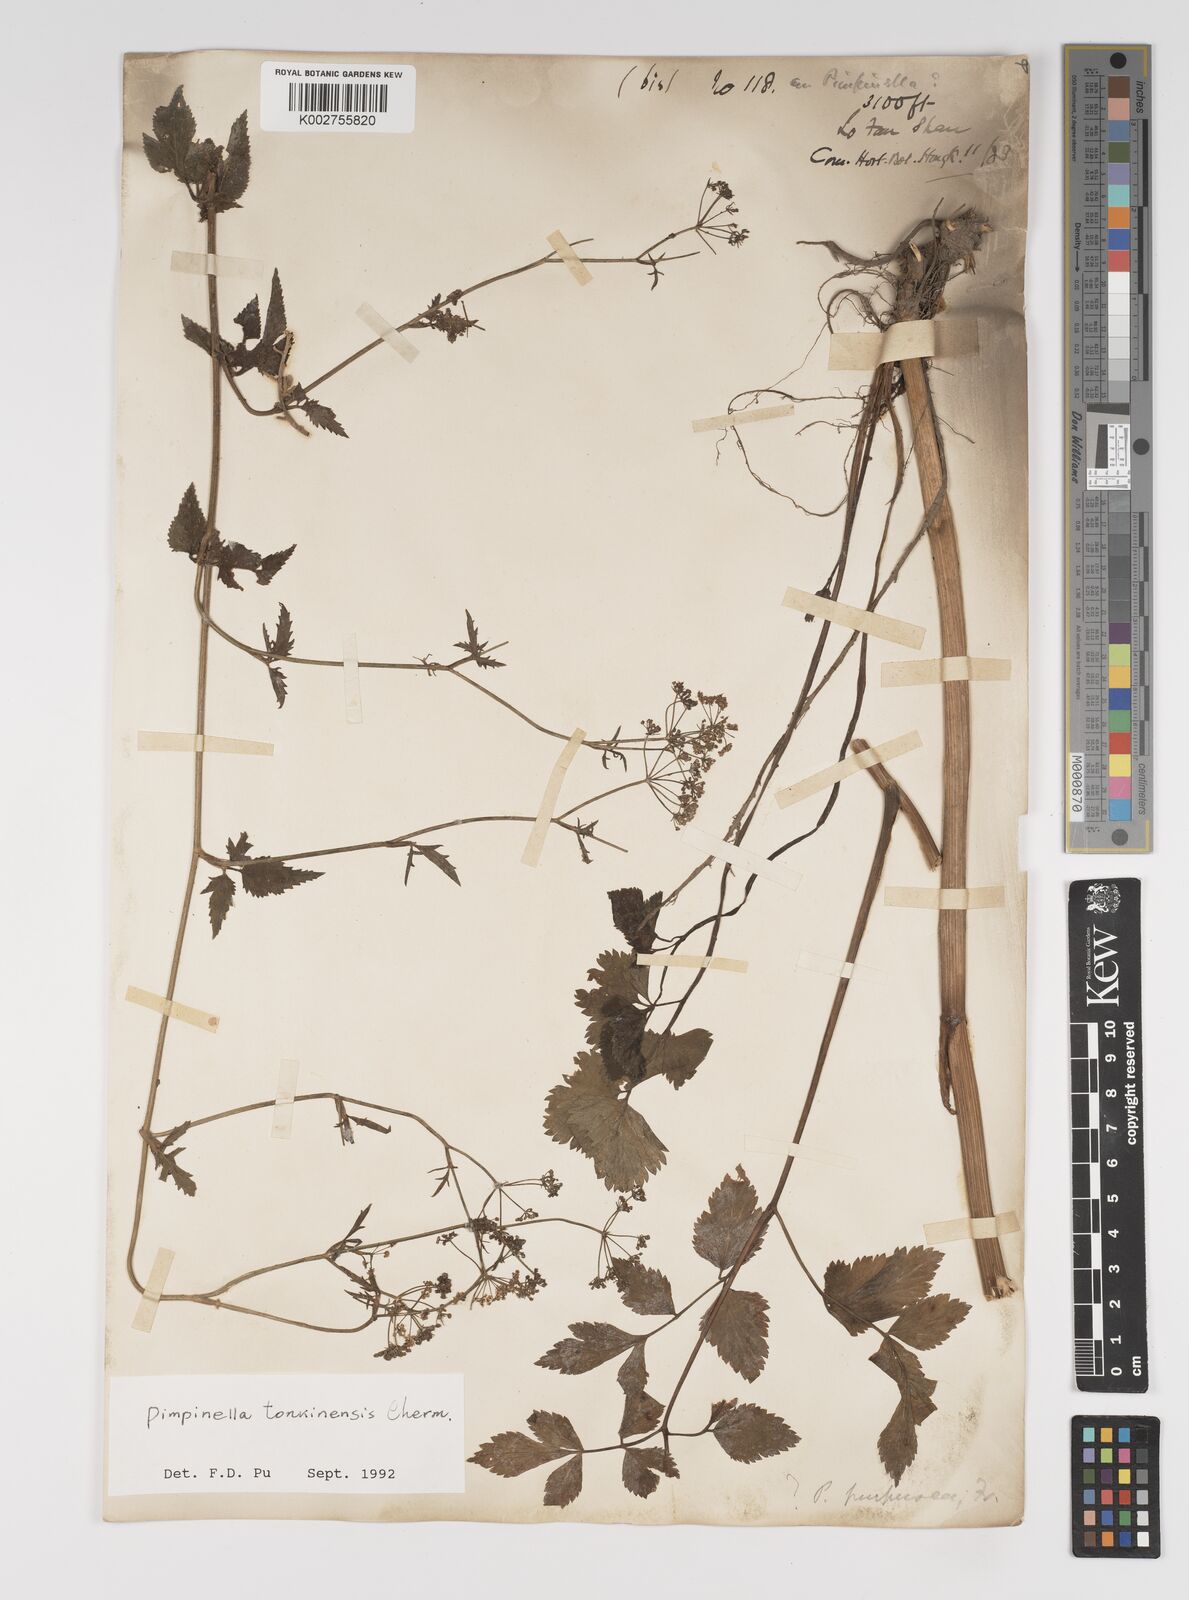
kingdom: Plantae
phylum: Tracheophyta
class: Magnoliopsida
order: Apiales
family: Apiaceae
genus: Pimpinella
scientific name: Pimpinella diversifolia
